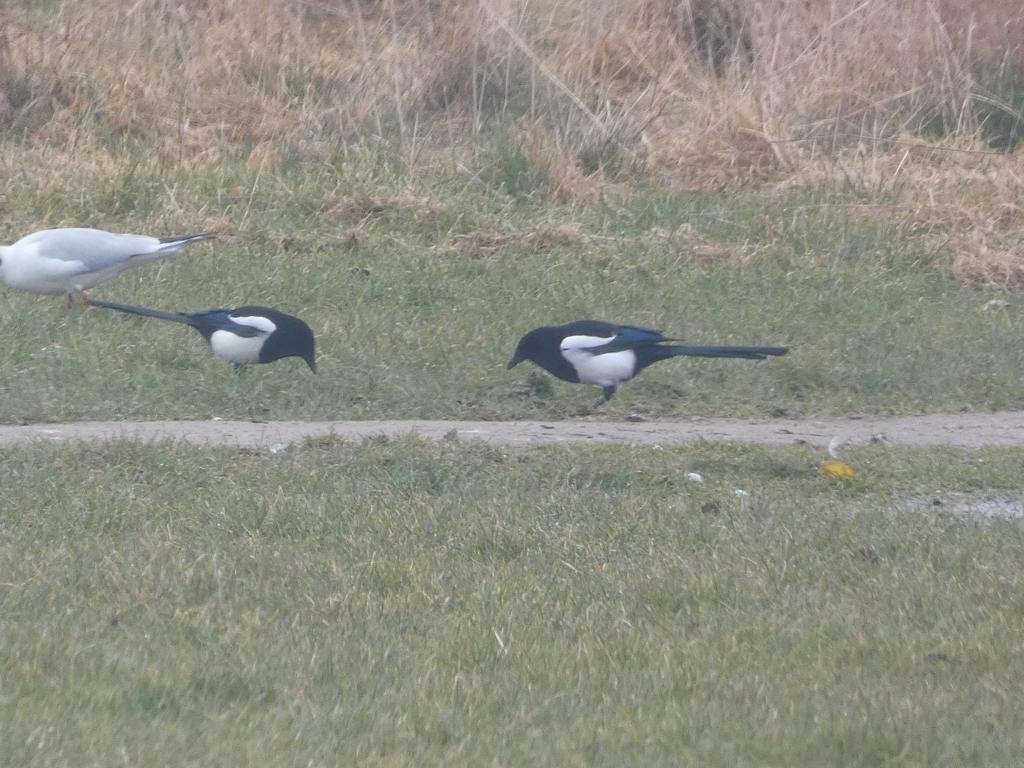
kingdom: Animalia
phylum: Chordata
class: Aves
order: Passeriformes
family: Corvidae
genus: Pica
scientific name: Pica pica
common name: Husskade
